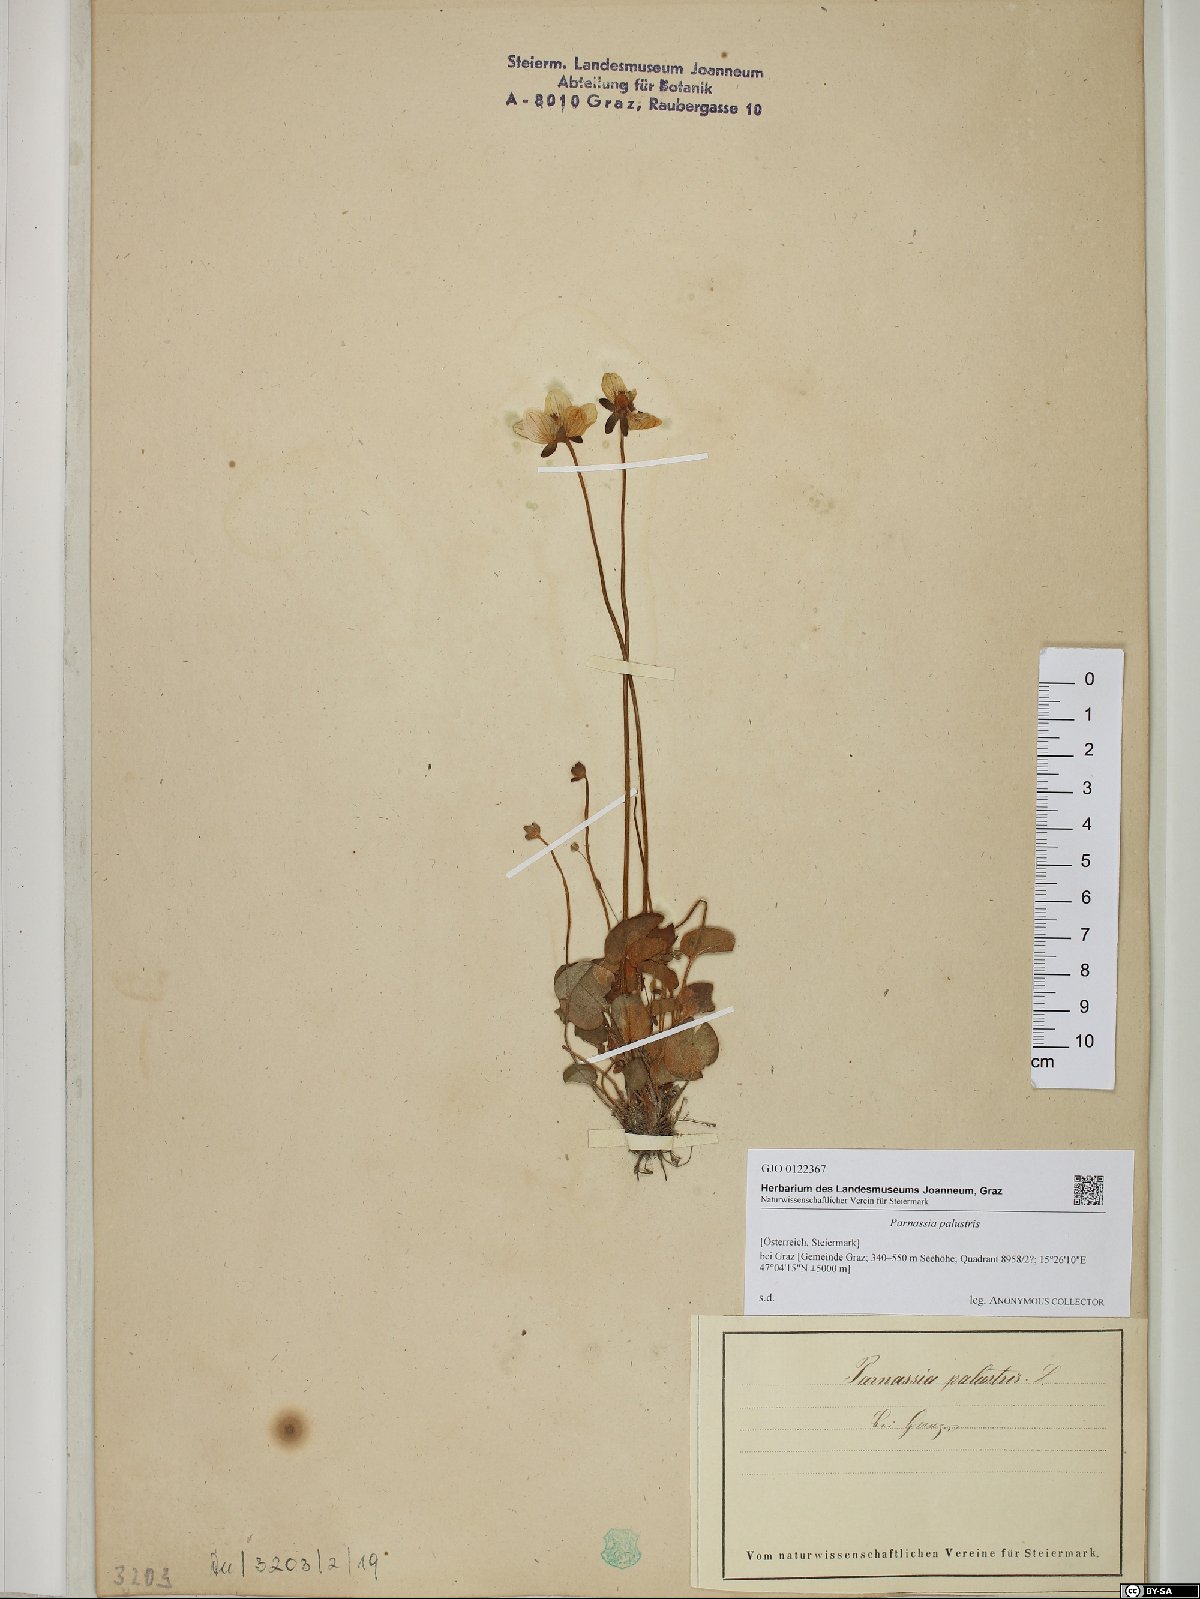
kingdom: Plantae
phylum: Tracheophyta
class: Magnoliopsida
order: Celastrales
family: Parnassiaceae
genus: Parnassia
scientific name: Parnassia palustris
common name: Grass-of-parnassus
